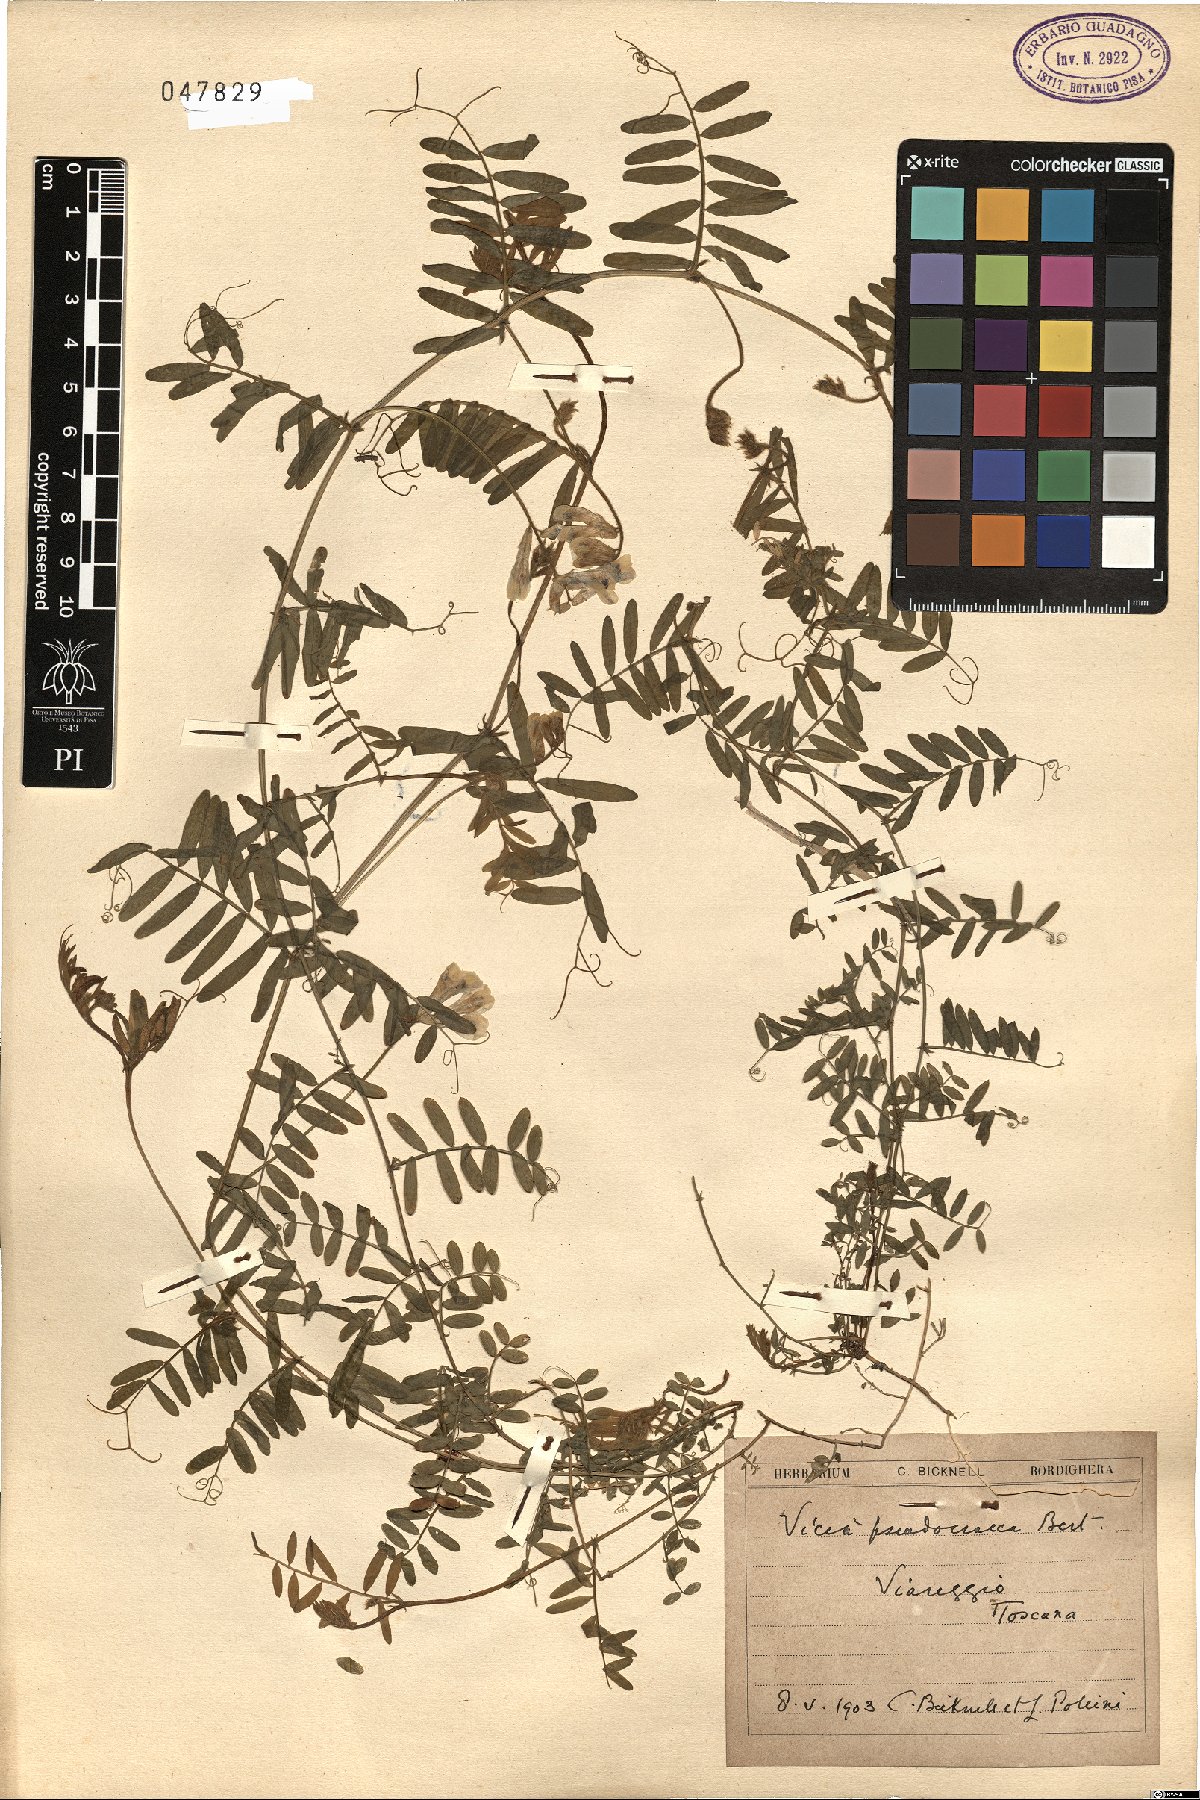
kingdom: Plantae
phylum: Tracheophyta
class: Magnoliopsida
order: Fabales
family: Fabaceae
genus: Vicia
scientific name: Vicia villosa
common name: Fodder vetch
